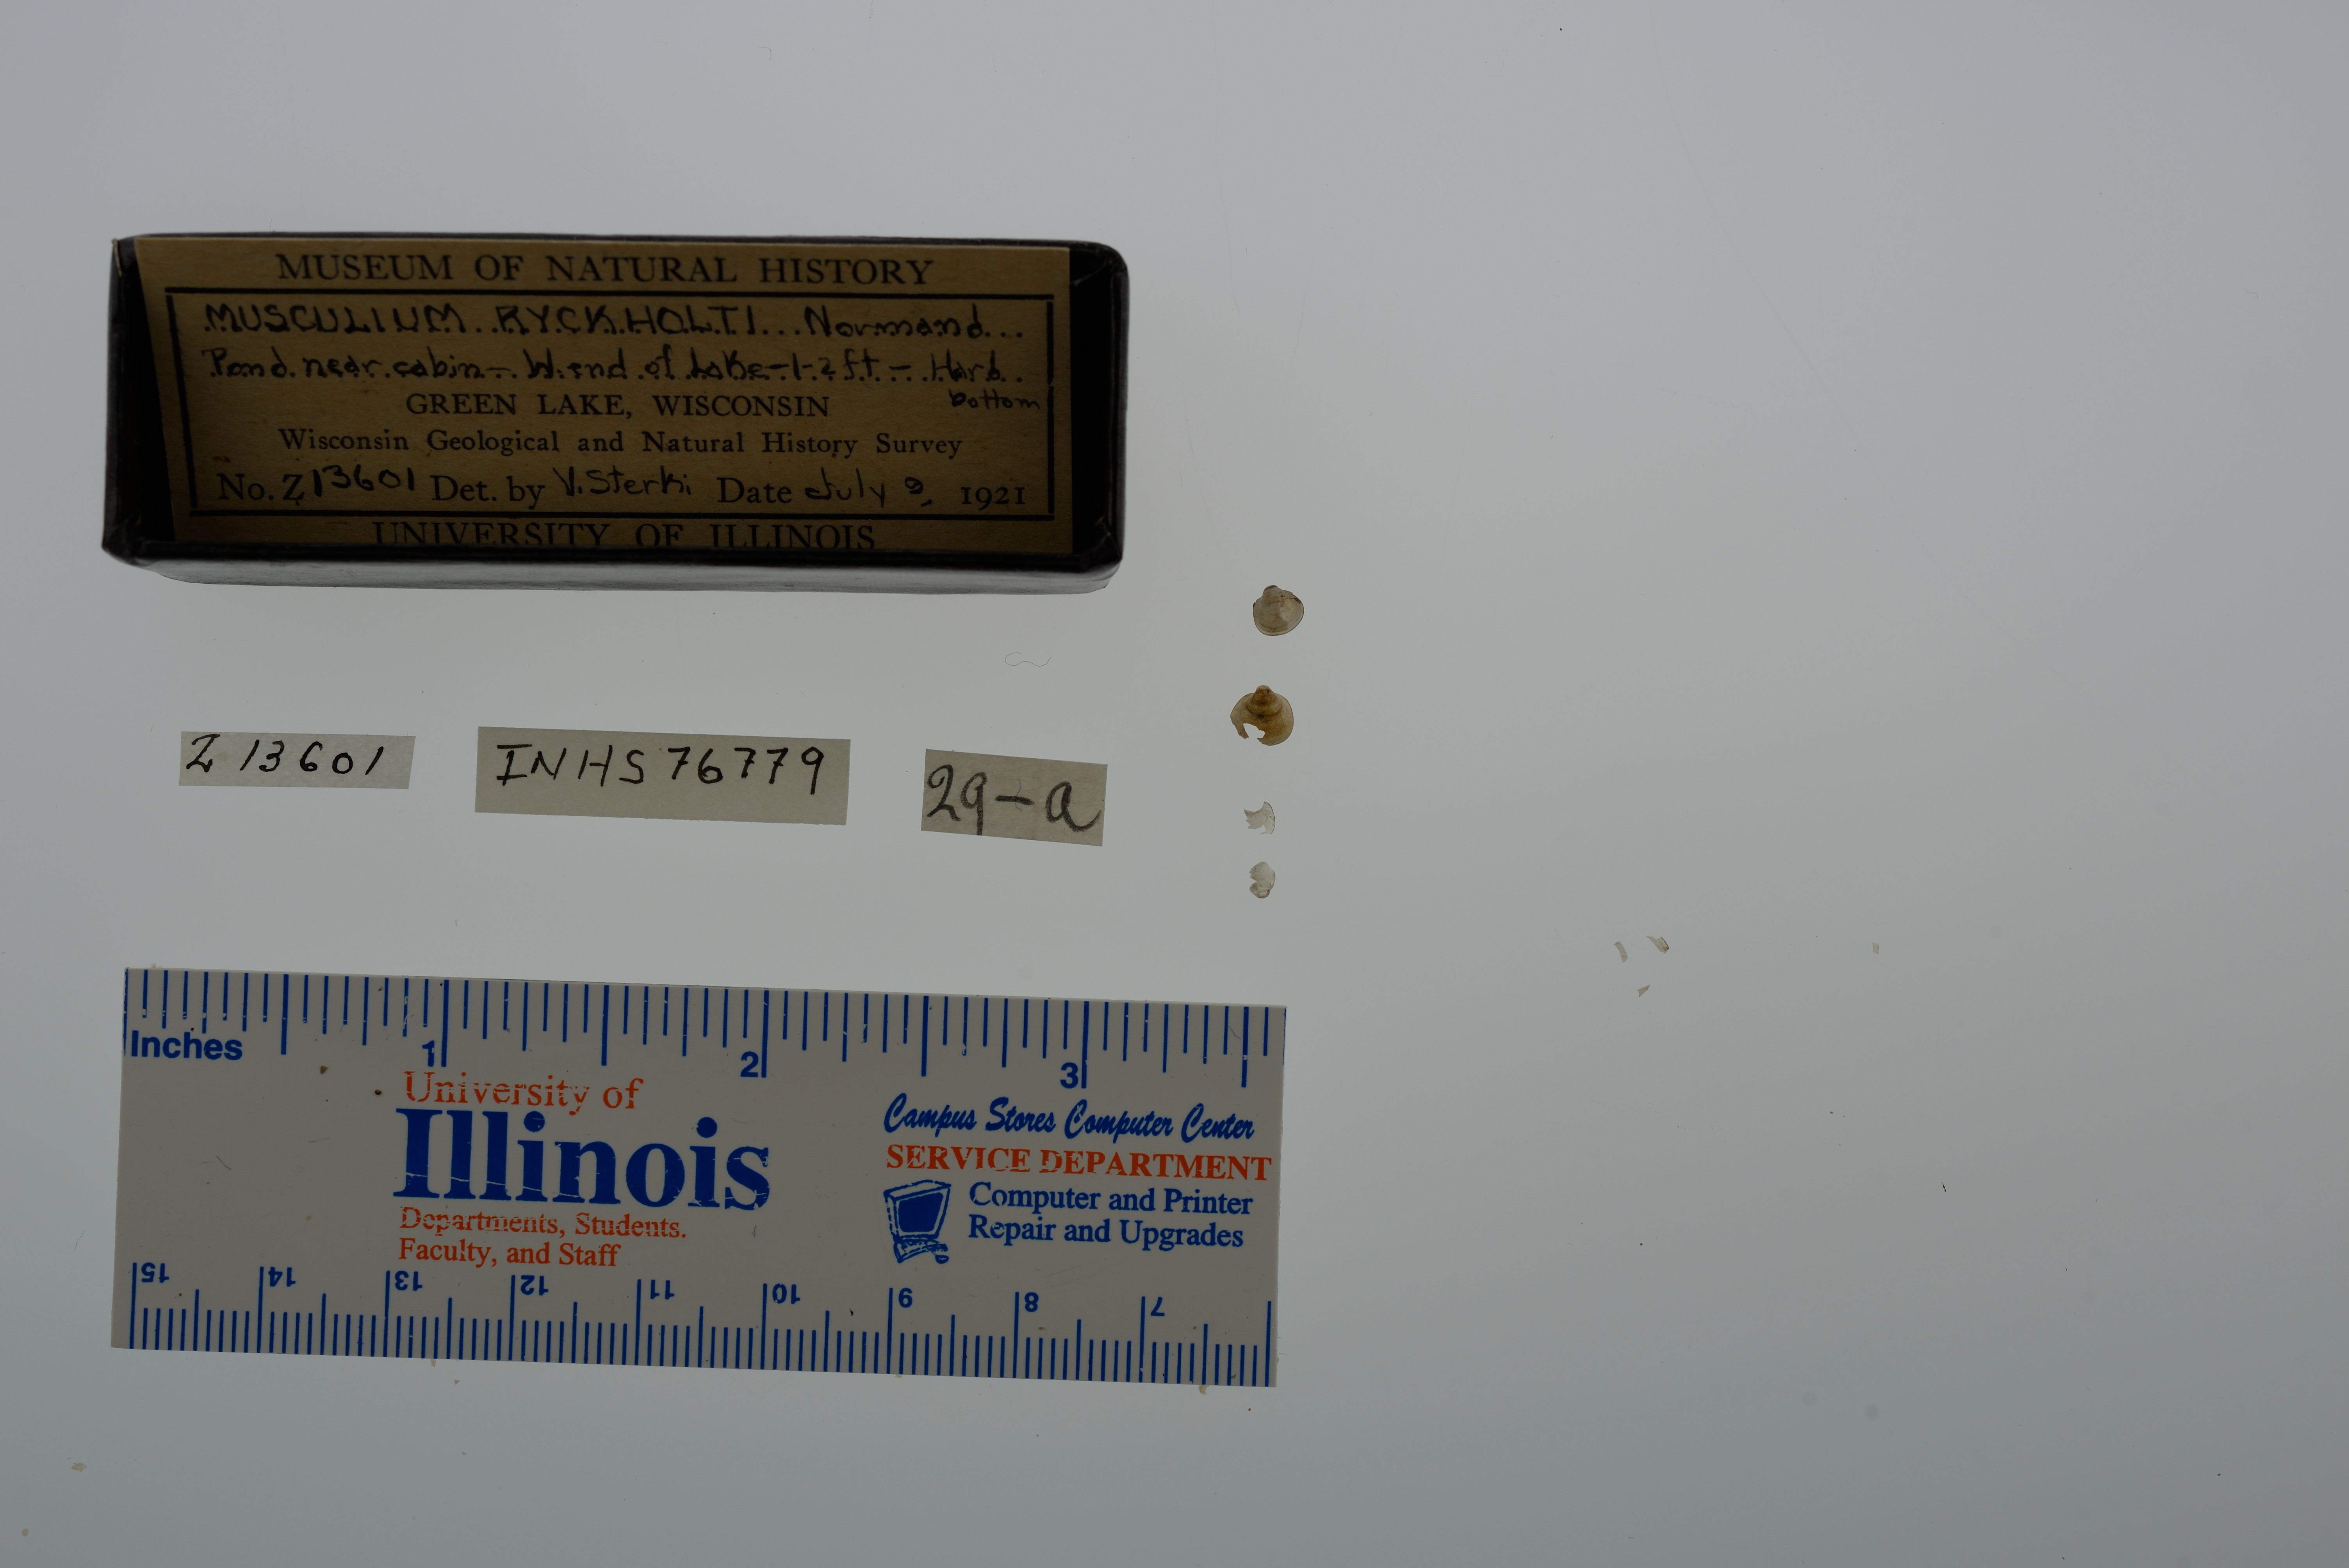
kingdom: Animalia
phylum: Mollusca
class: Bivalvia
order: Sphaeriida
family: Sphaeriidae
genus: Musculium
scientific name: Musculium lacustre
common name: Lake fingernailclam
